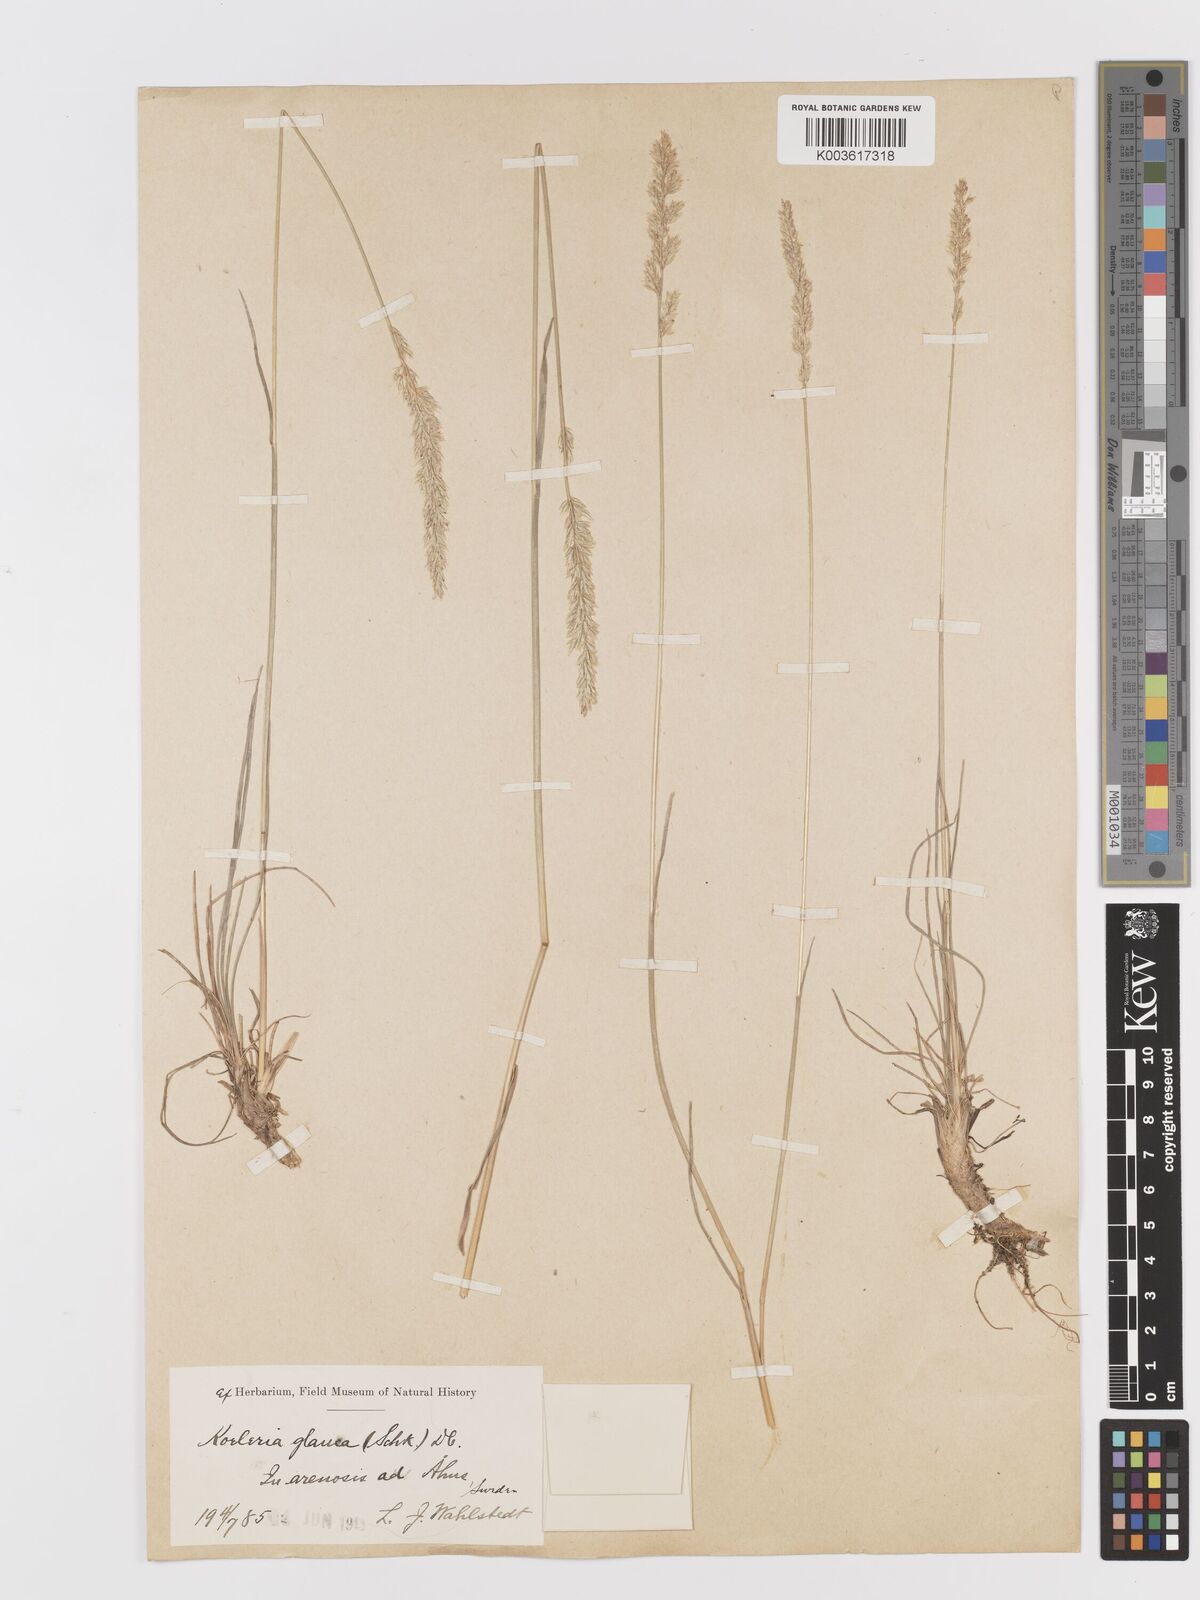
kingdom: Plantae
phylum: Tracheophyta
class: Liliopsida
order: Poales
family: Poaceae
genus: Koeleria
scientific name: Koeleria glauca
